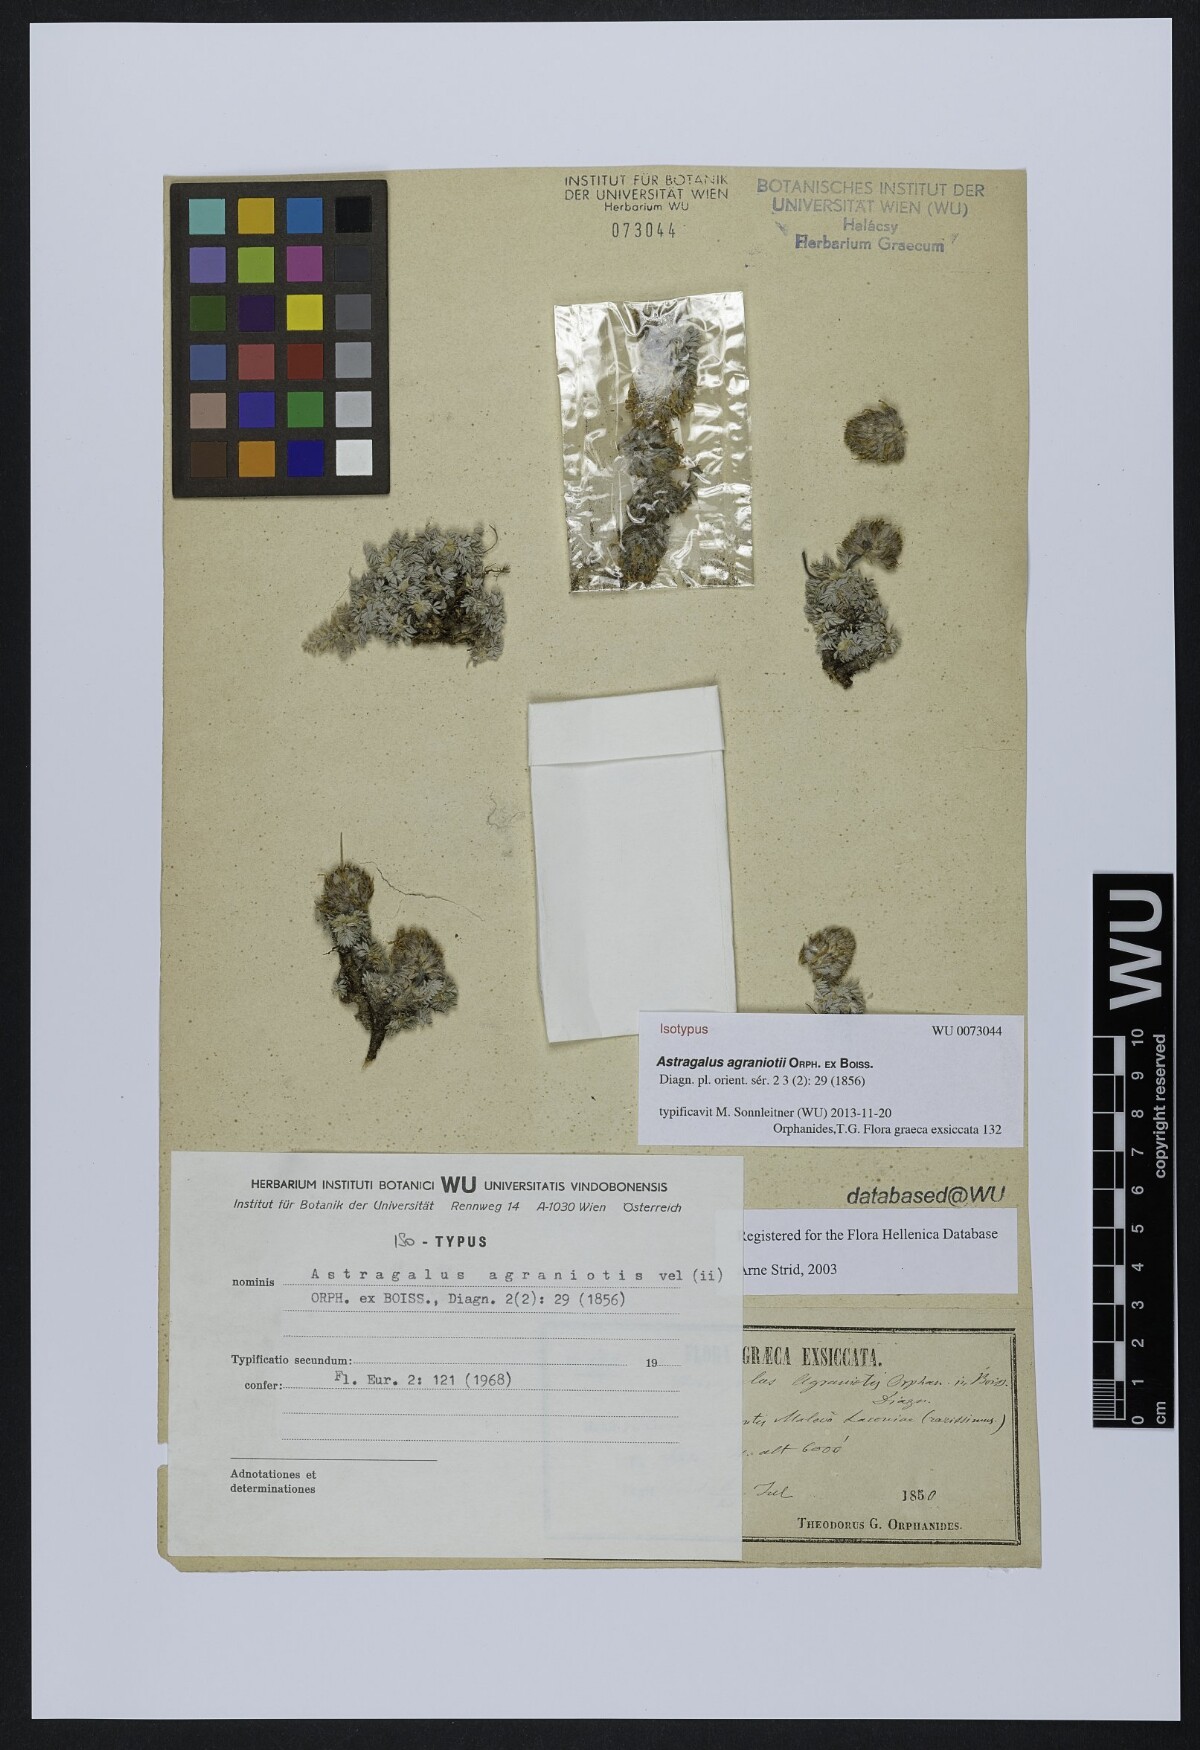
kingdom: Plantae
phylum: Tracheophyta
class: Magnoliopsida
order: Fabales
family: Fabaceae
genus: Astragalus
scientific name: Astragalus agraniotii
